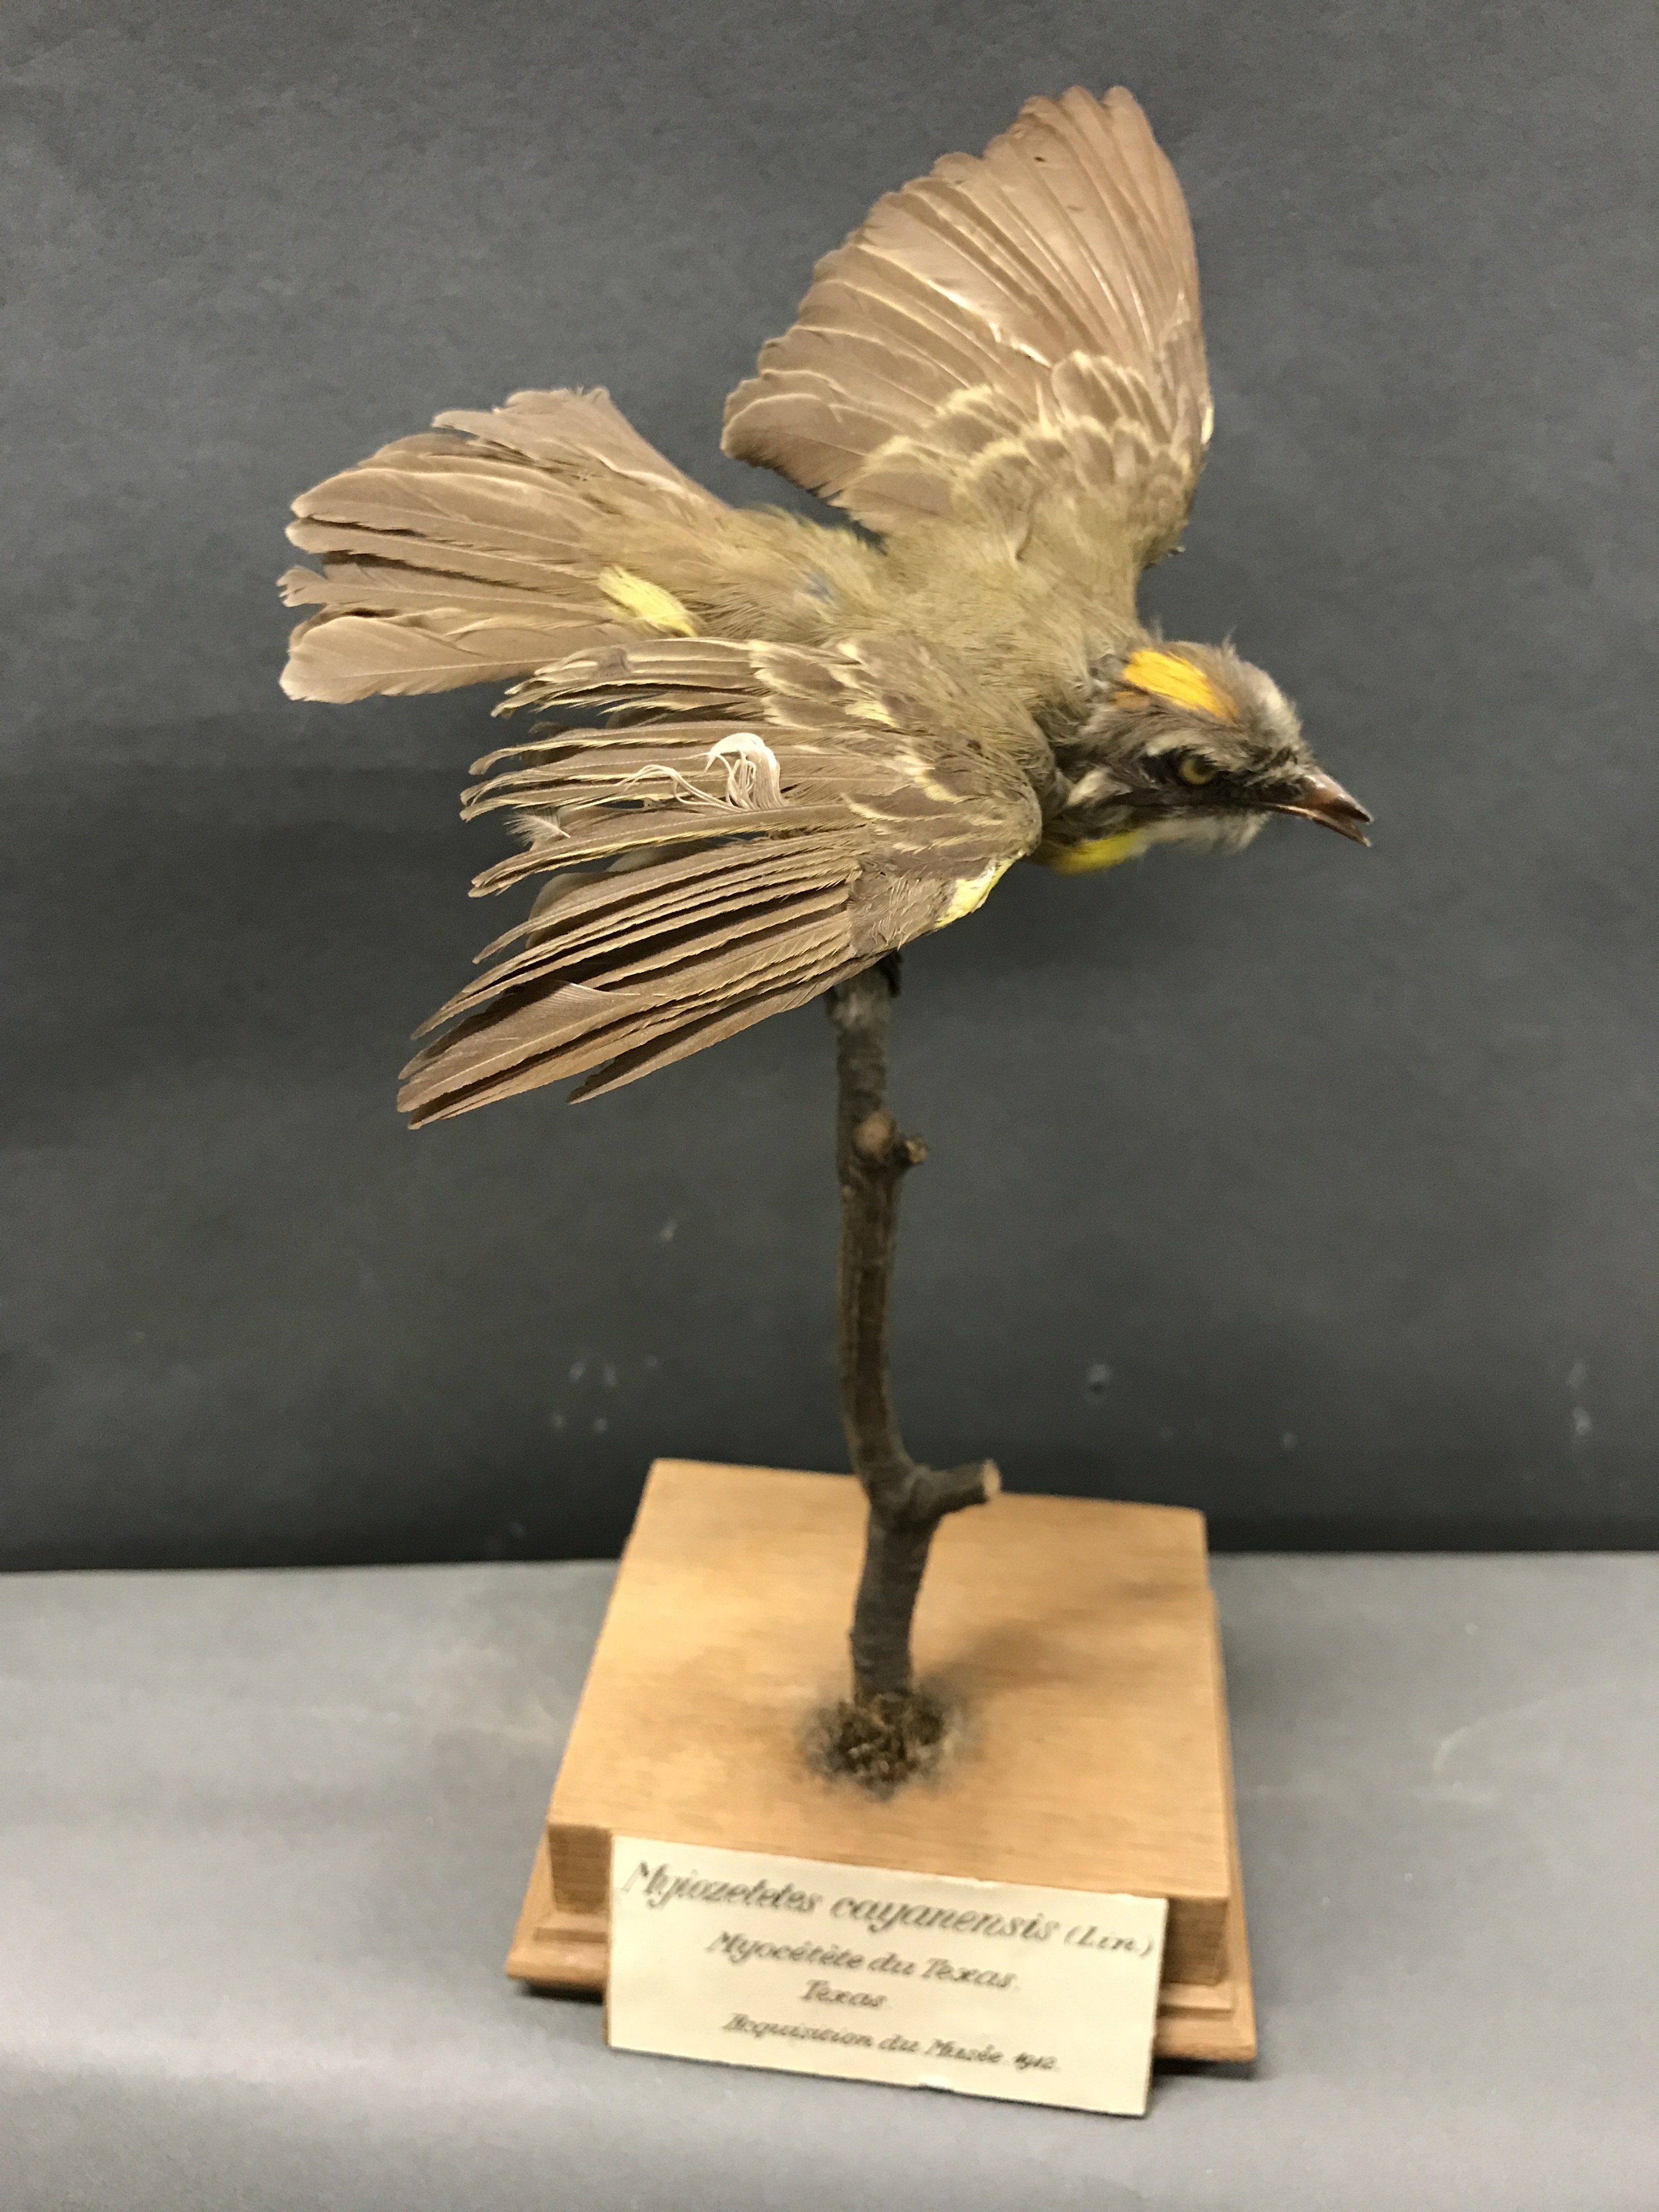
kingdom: Animalia
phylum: Chordata
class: Aves
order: Passeriformes
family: Tyrannidae
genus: Myiozetetes
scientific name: Myiozetetes cayanensis
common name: Rusty-margined flycatcher
